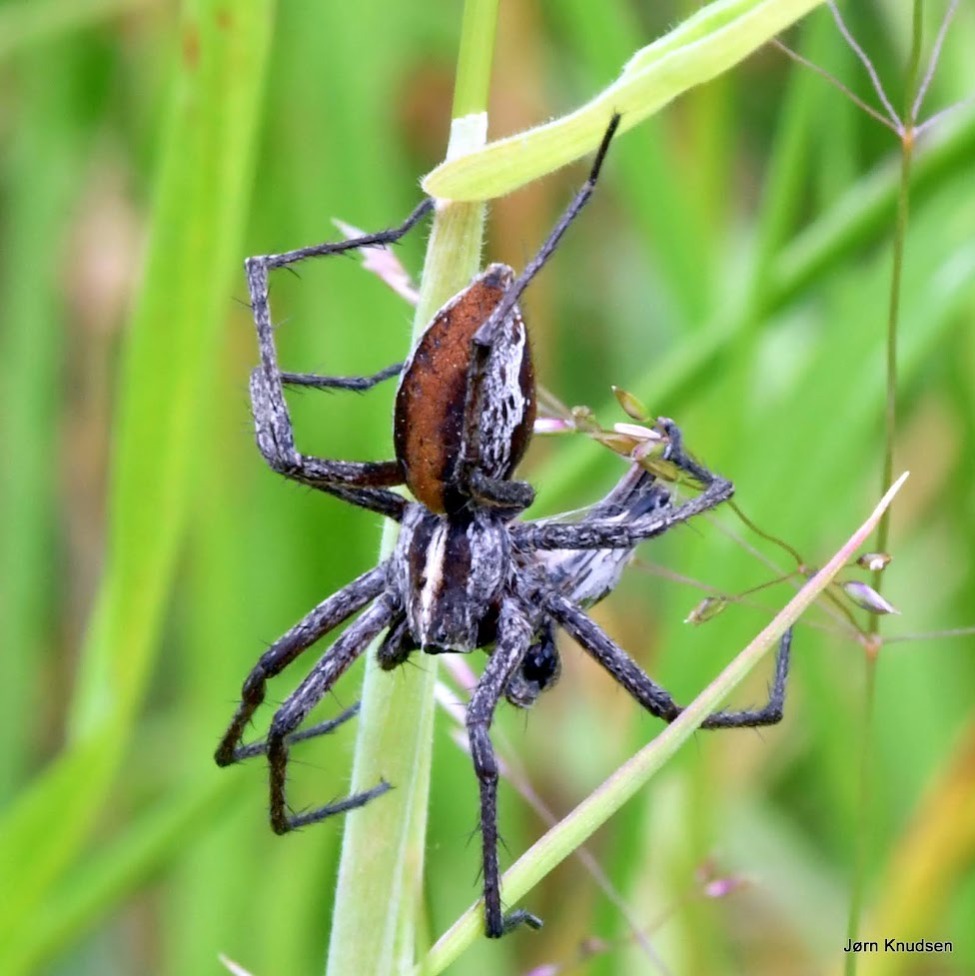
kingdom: Animalia
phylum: Arthropoda
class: Arachnida
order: Araneae
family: Pisauridae
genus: Pisaura
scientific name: Pisaura mirabilis
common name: Almindelig rovedderkop
